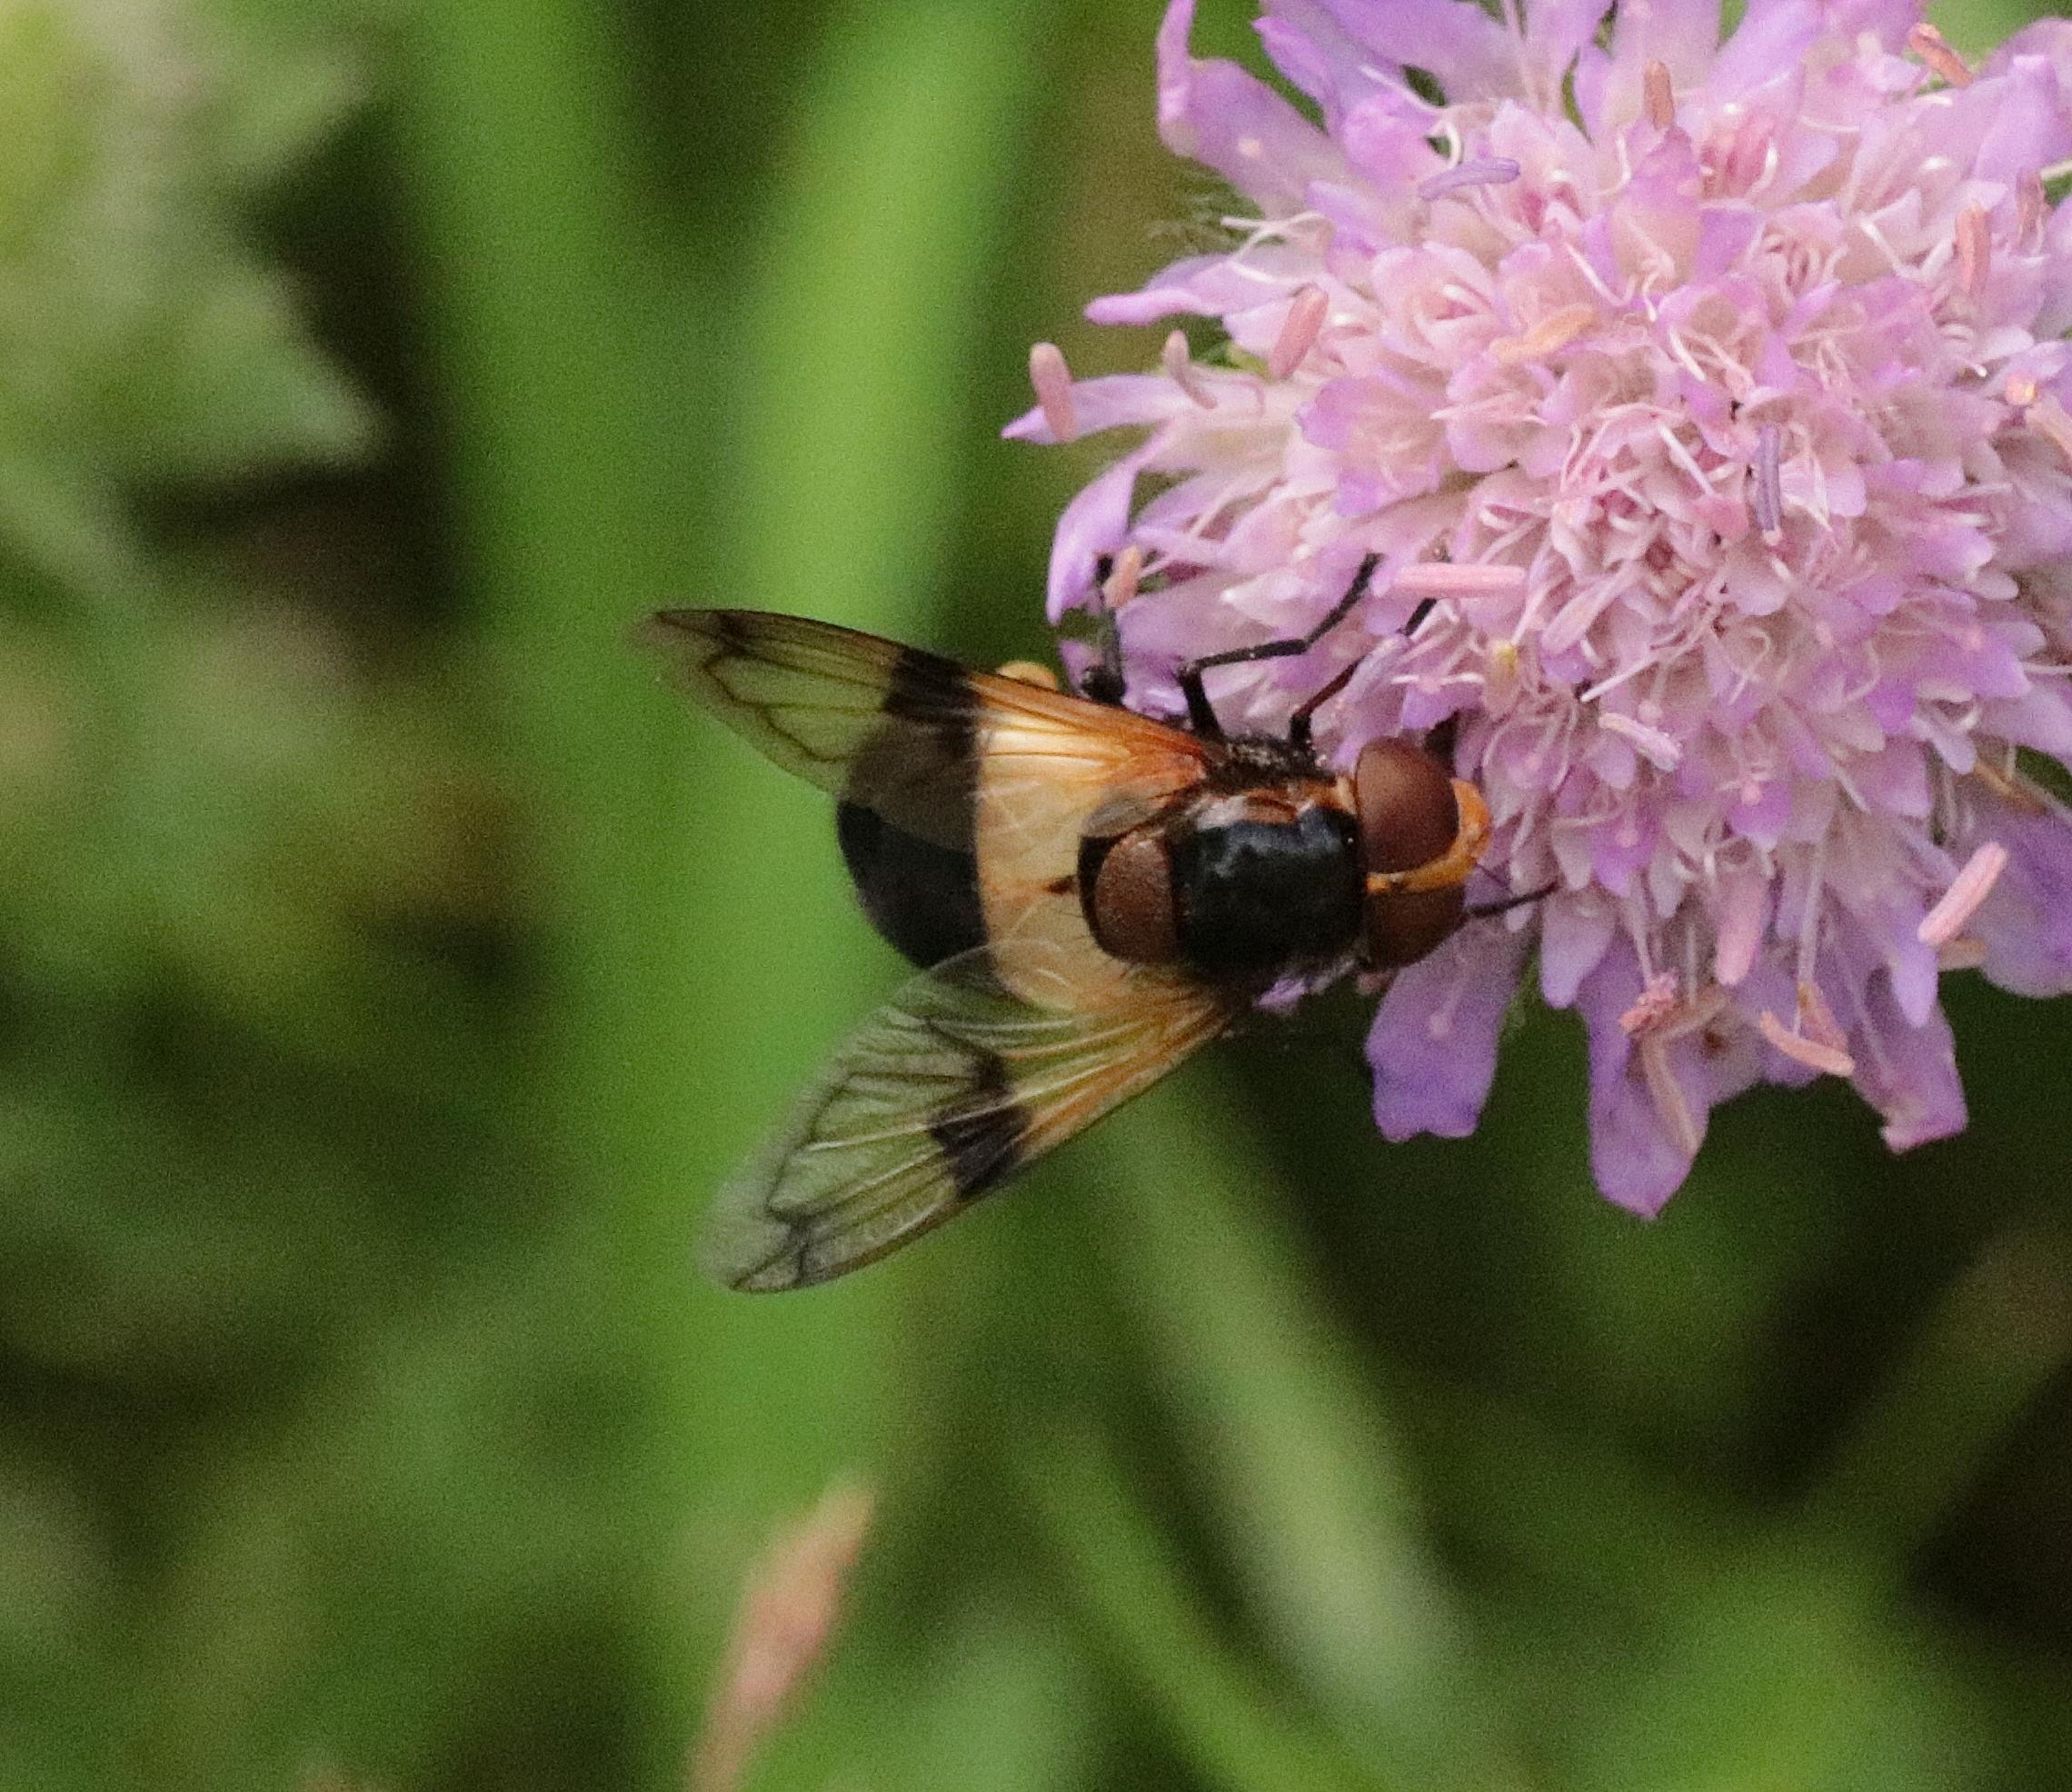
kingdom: Animalia
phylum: Arthropoda
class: Insecta
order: Diptera
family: Syrphidae
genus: Volucella
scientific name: Volucella pellucens
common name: Hvidbåndet humlesvirreflue
